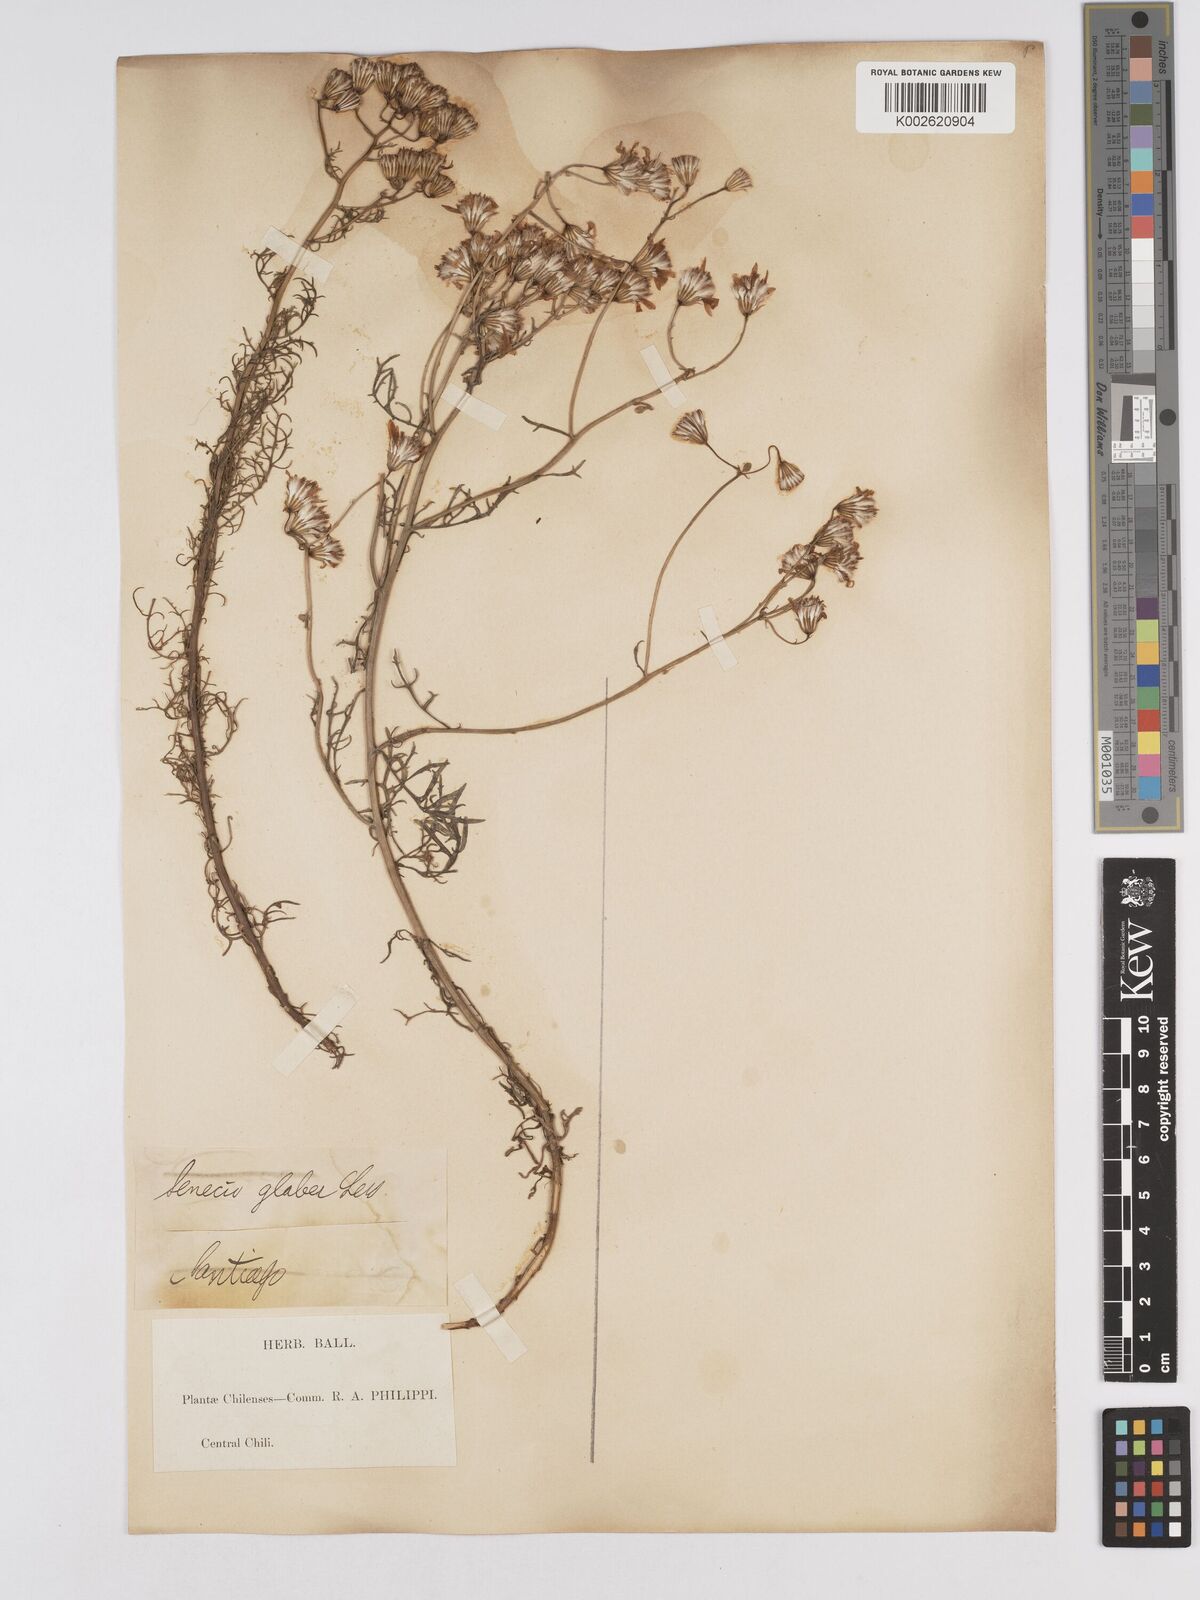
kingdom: Plantae
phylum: Tracheophyta
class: Magnoliopsida
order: Asterales
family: Asteraceae
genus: Senecio
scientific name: Senecio glaber
